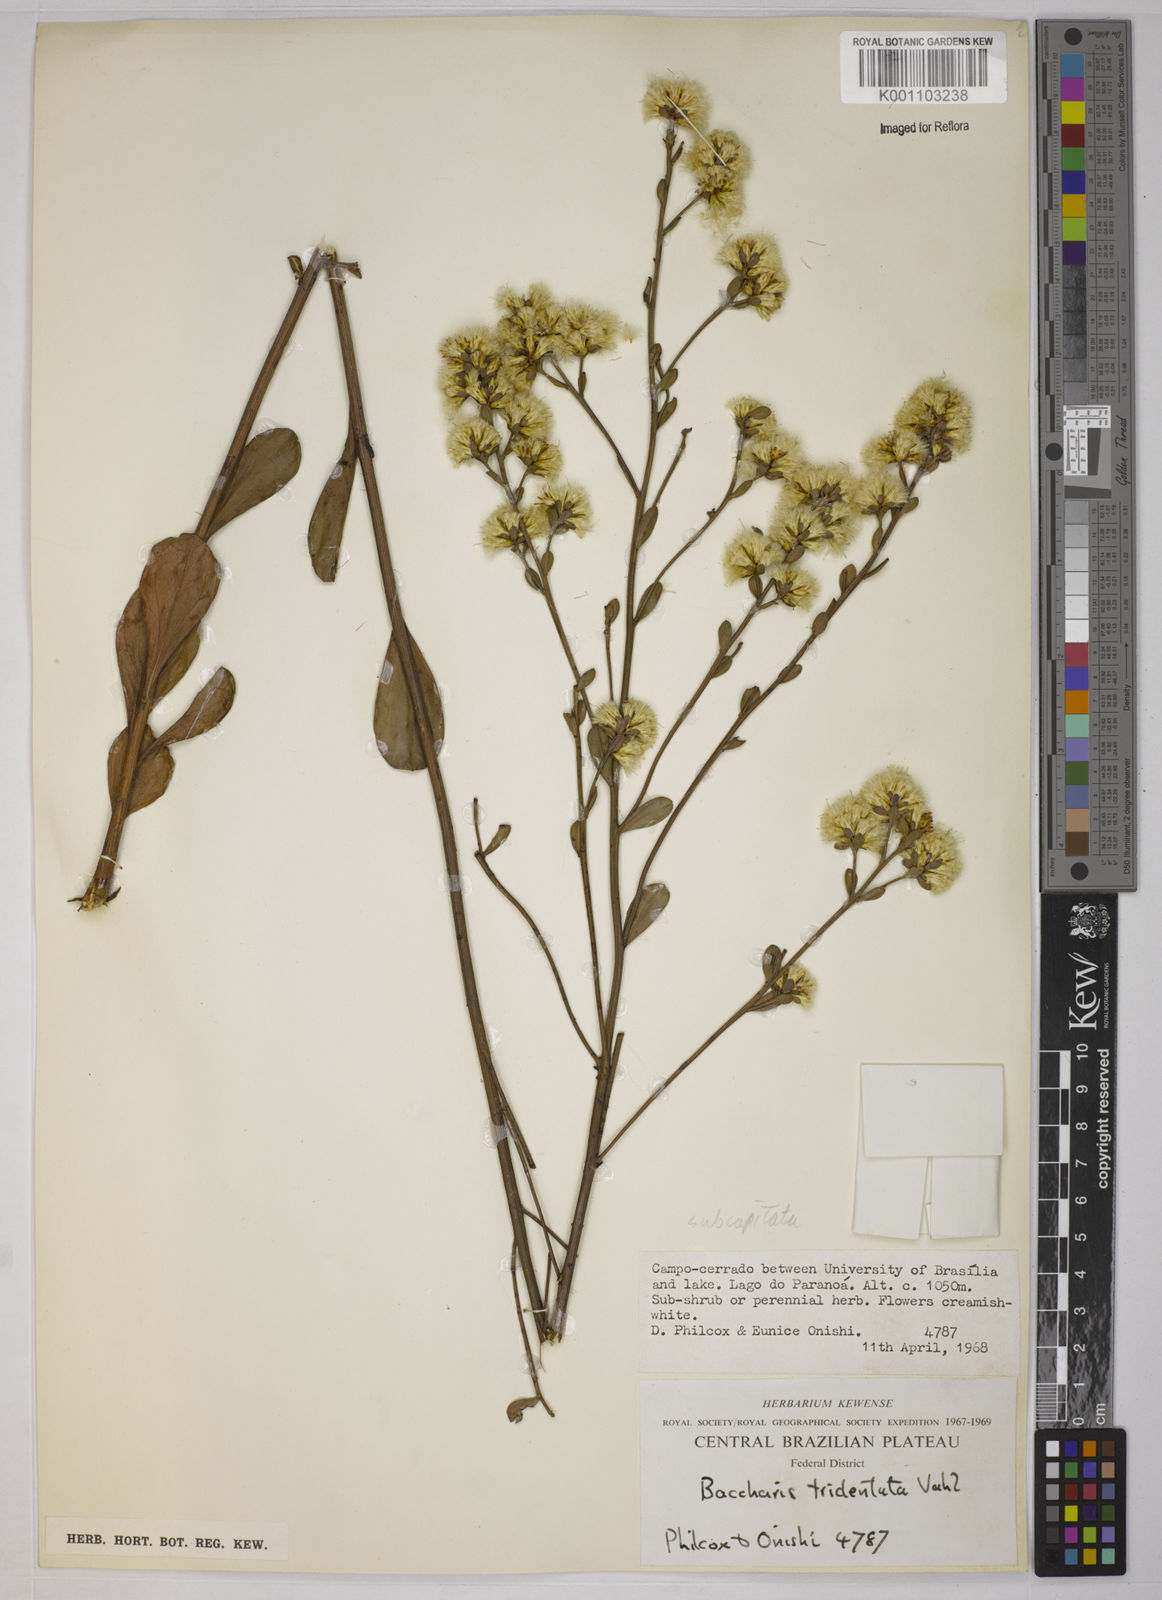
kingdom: Plantae
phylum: Tracheophyta
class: Magnoliopsida
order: Asterales
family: Asteraceae
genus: Baccharis
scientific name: Baccharis subdentata
